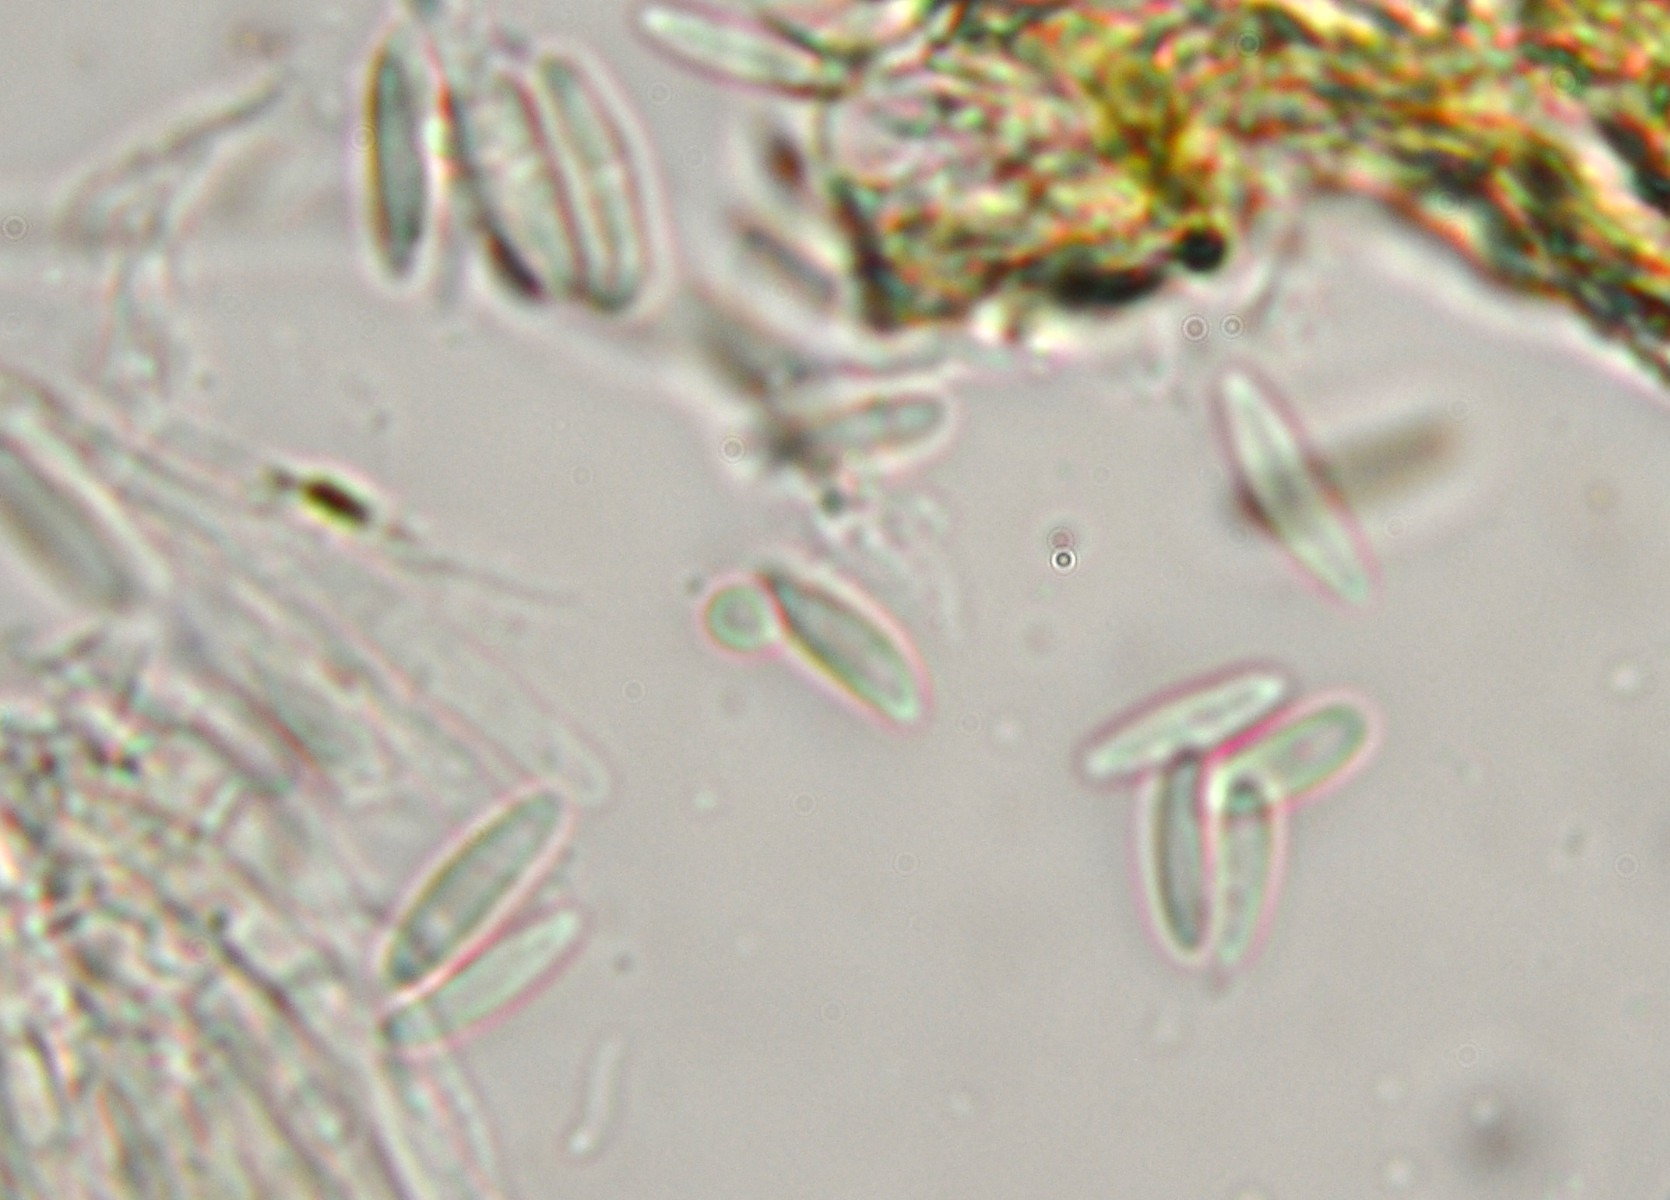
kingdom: Fungi
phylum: Ascomycota
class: Leotiomycetes
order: Helotiales
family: Pezizellaceae
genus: Calycina
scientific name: Calycina alniella
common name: ellekogle-stilkskive
